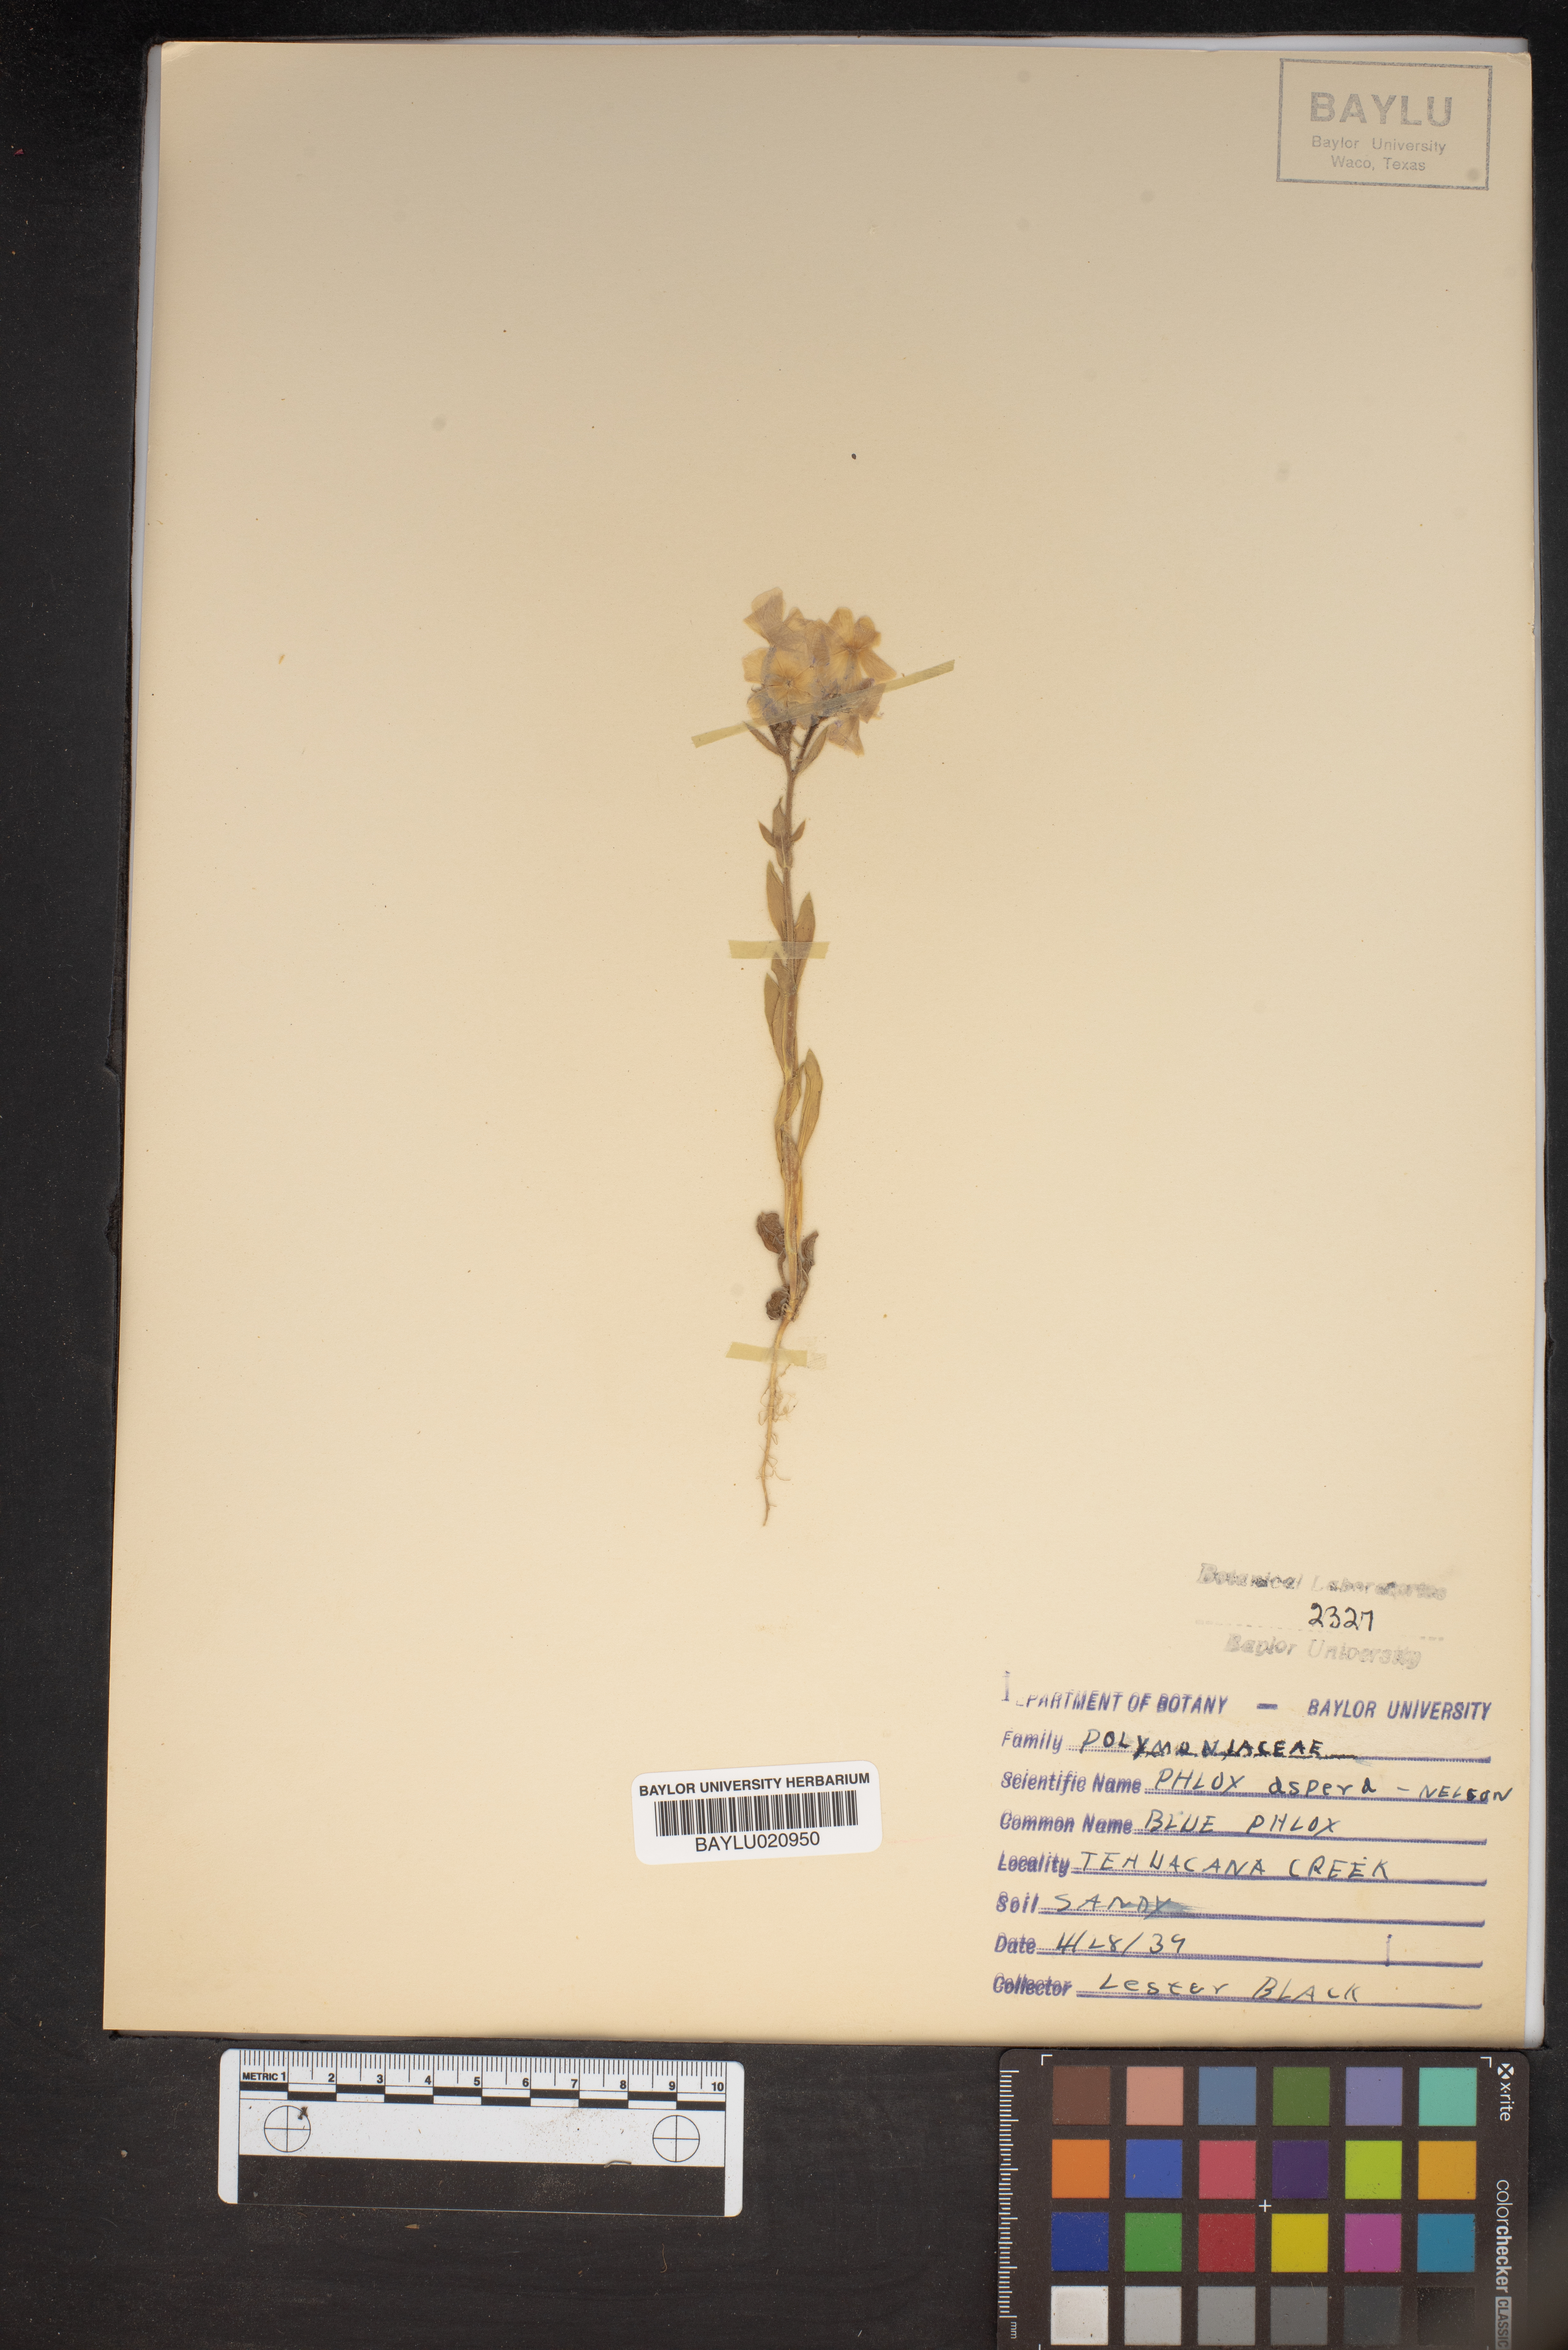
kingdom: Plantae
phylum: Tracheophyta
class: Magnoliopsida
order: Ericales
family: Polemoniaceae
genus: Phlox
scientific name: Phlox variabilis
